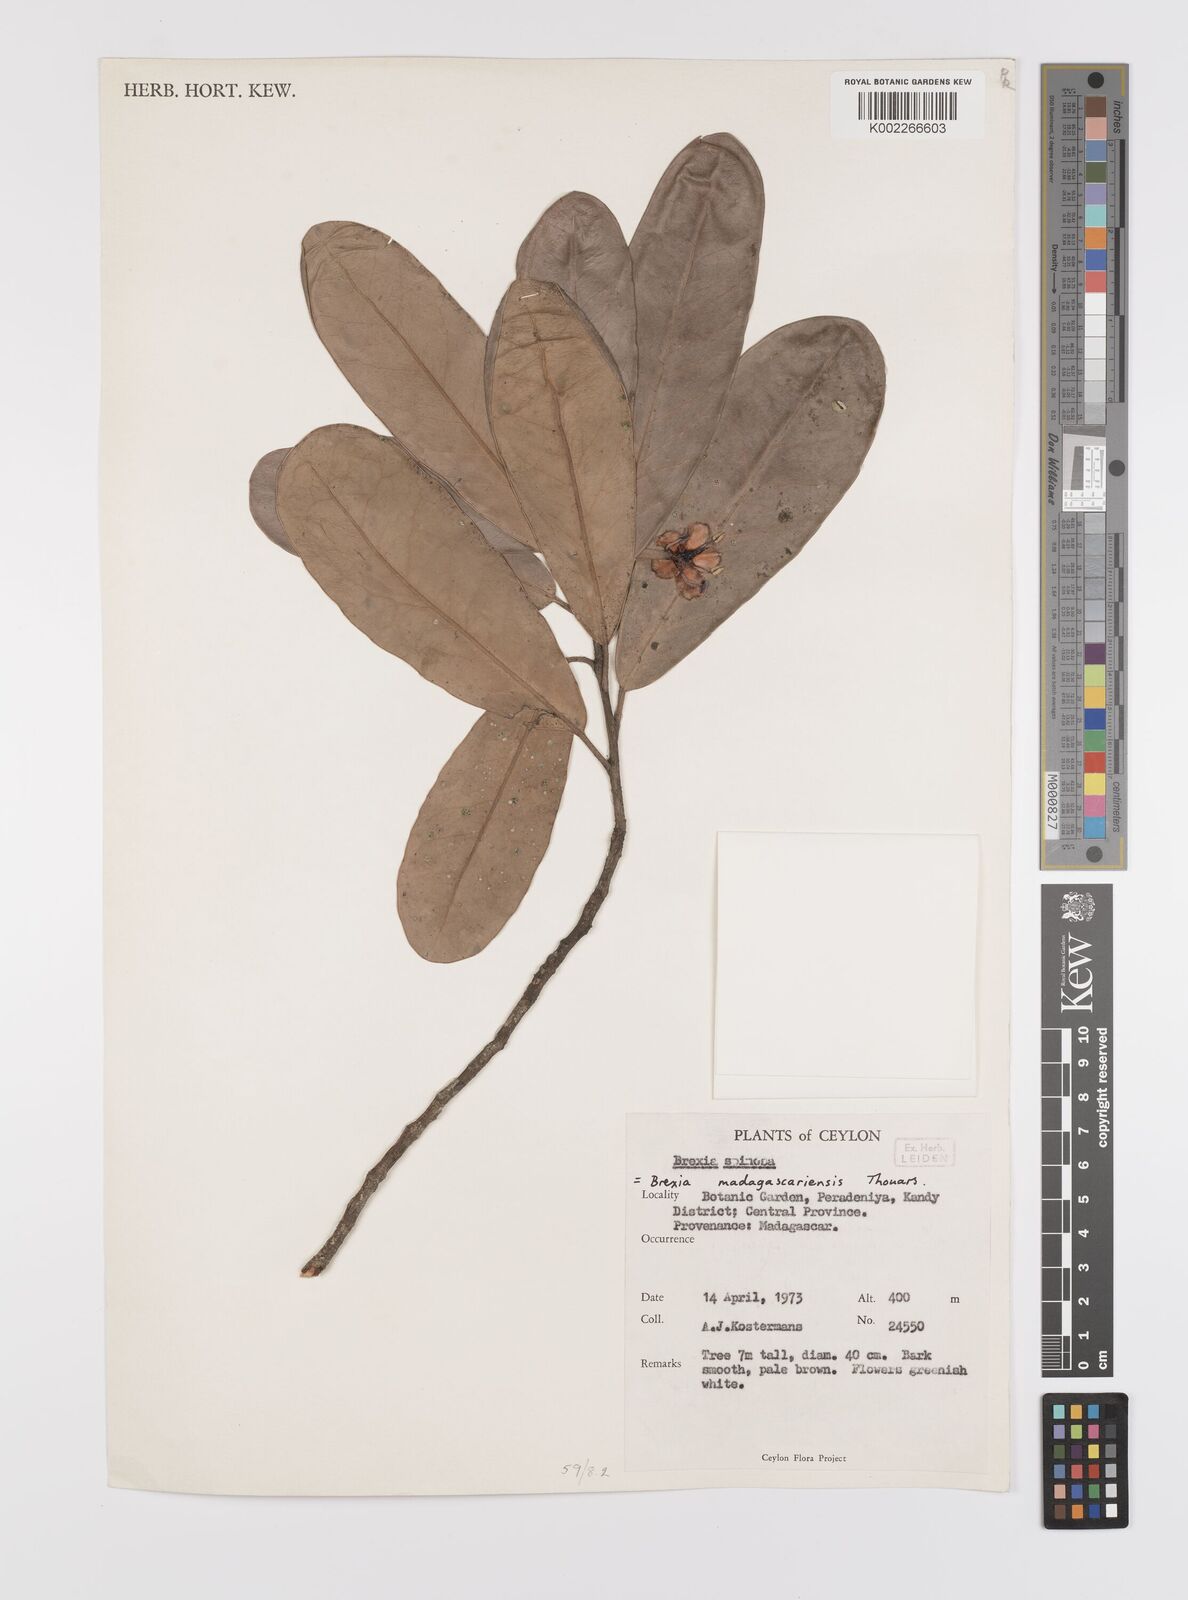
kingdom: Plantae
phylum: Tracheophyta
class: Magnoliopsida
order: Celastrales
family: Celastraceae
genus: Brexia
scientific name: Brexia madagascariensis
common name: Brexia
